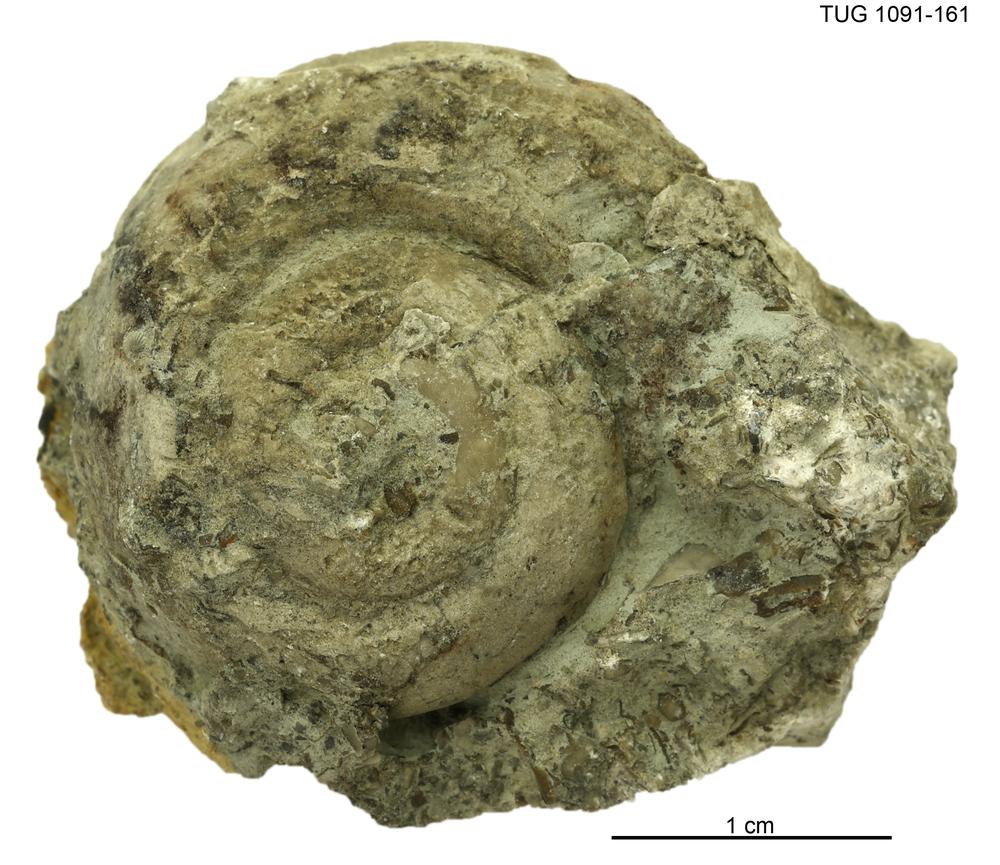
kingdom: Animalia
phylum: Mollusca
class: Gastropoda
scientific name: Gastropoda
